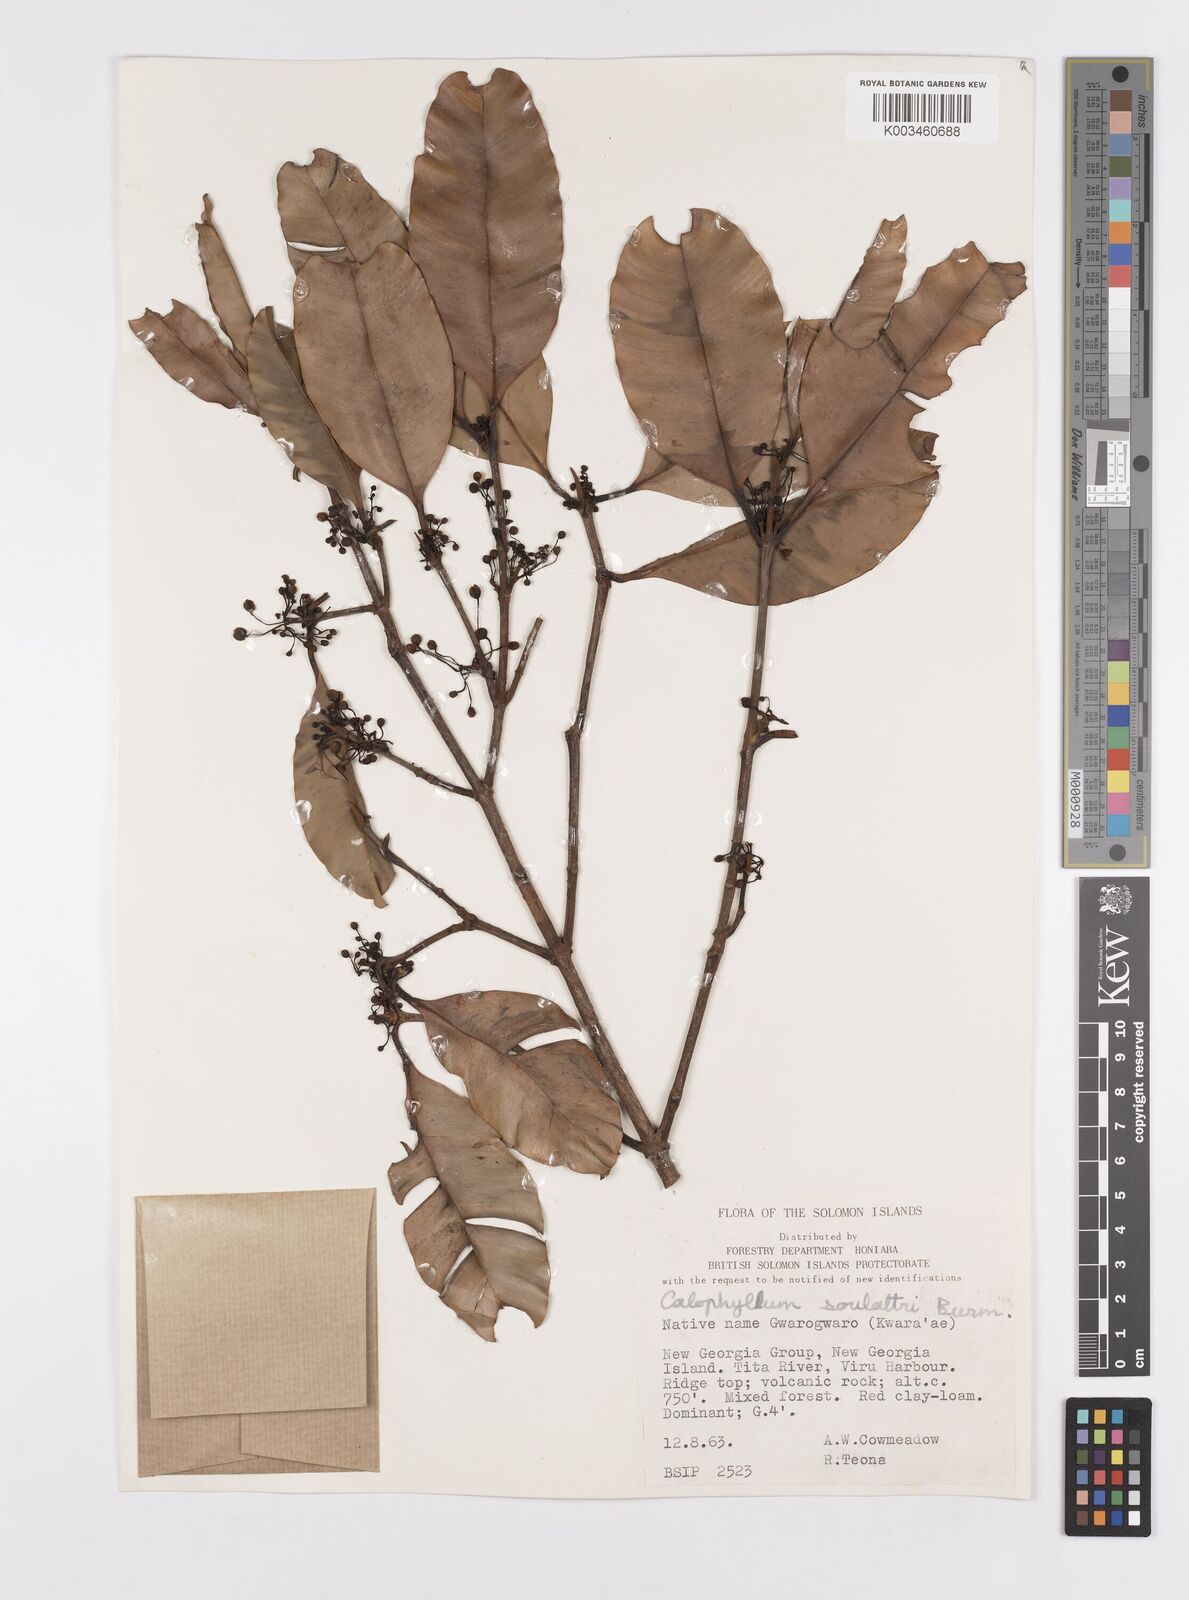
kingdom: Plantae
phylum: Tracheophyta
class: Magnoliopsida
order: Malpighiales
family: Calophyllaceae
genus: Calophyllum
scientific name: Calophyllum soulattri
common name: Bitangoor boonot
